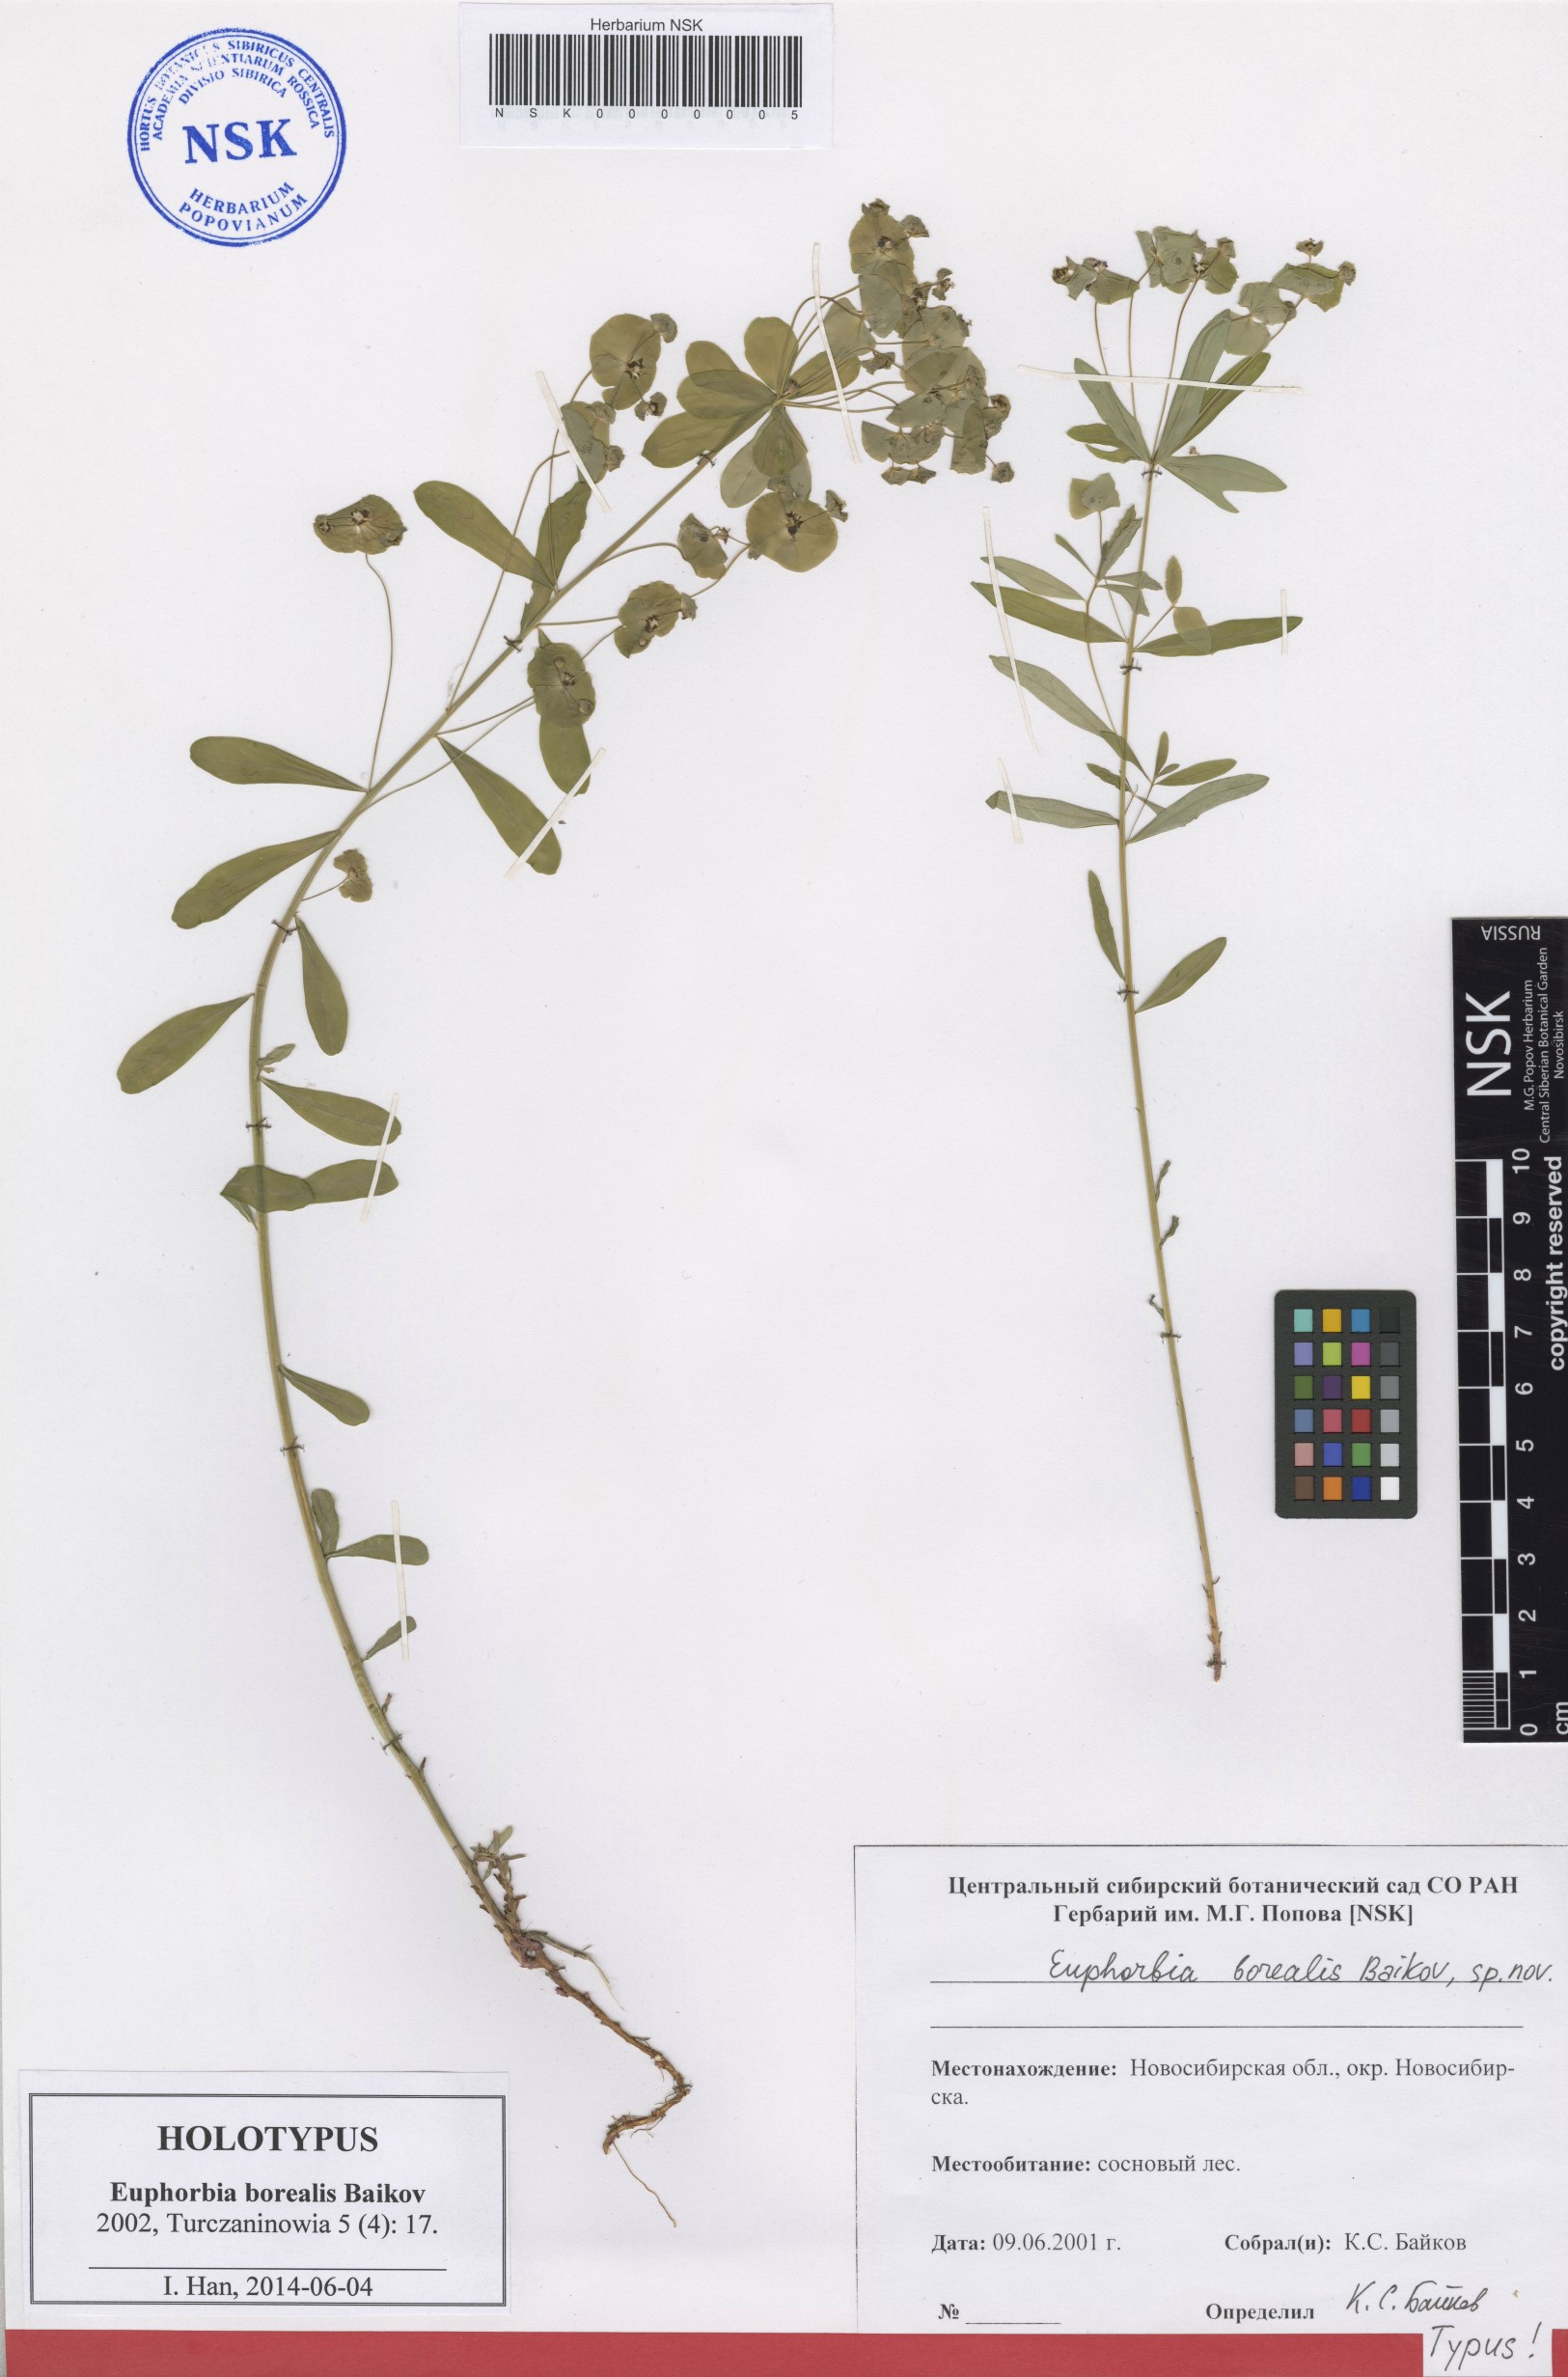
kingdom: Plantae
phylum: Tracheophyta
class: Magnoliopsida
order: Malpighiales
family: Euphorbiaceae
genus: Euphorbia
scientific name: Euphorbia borealis
